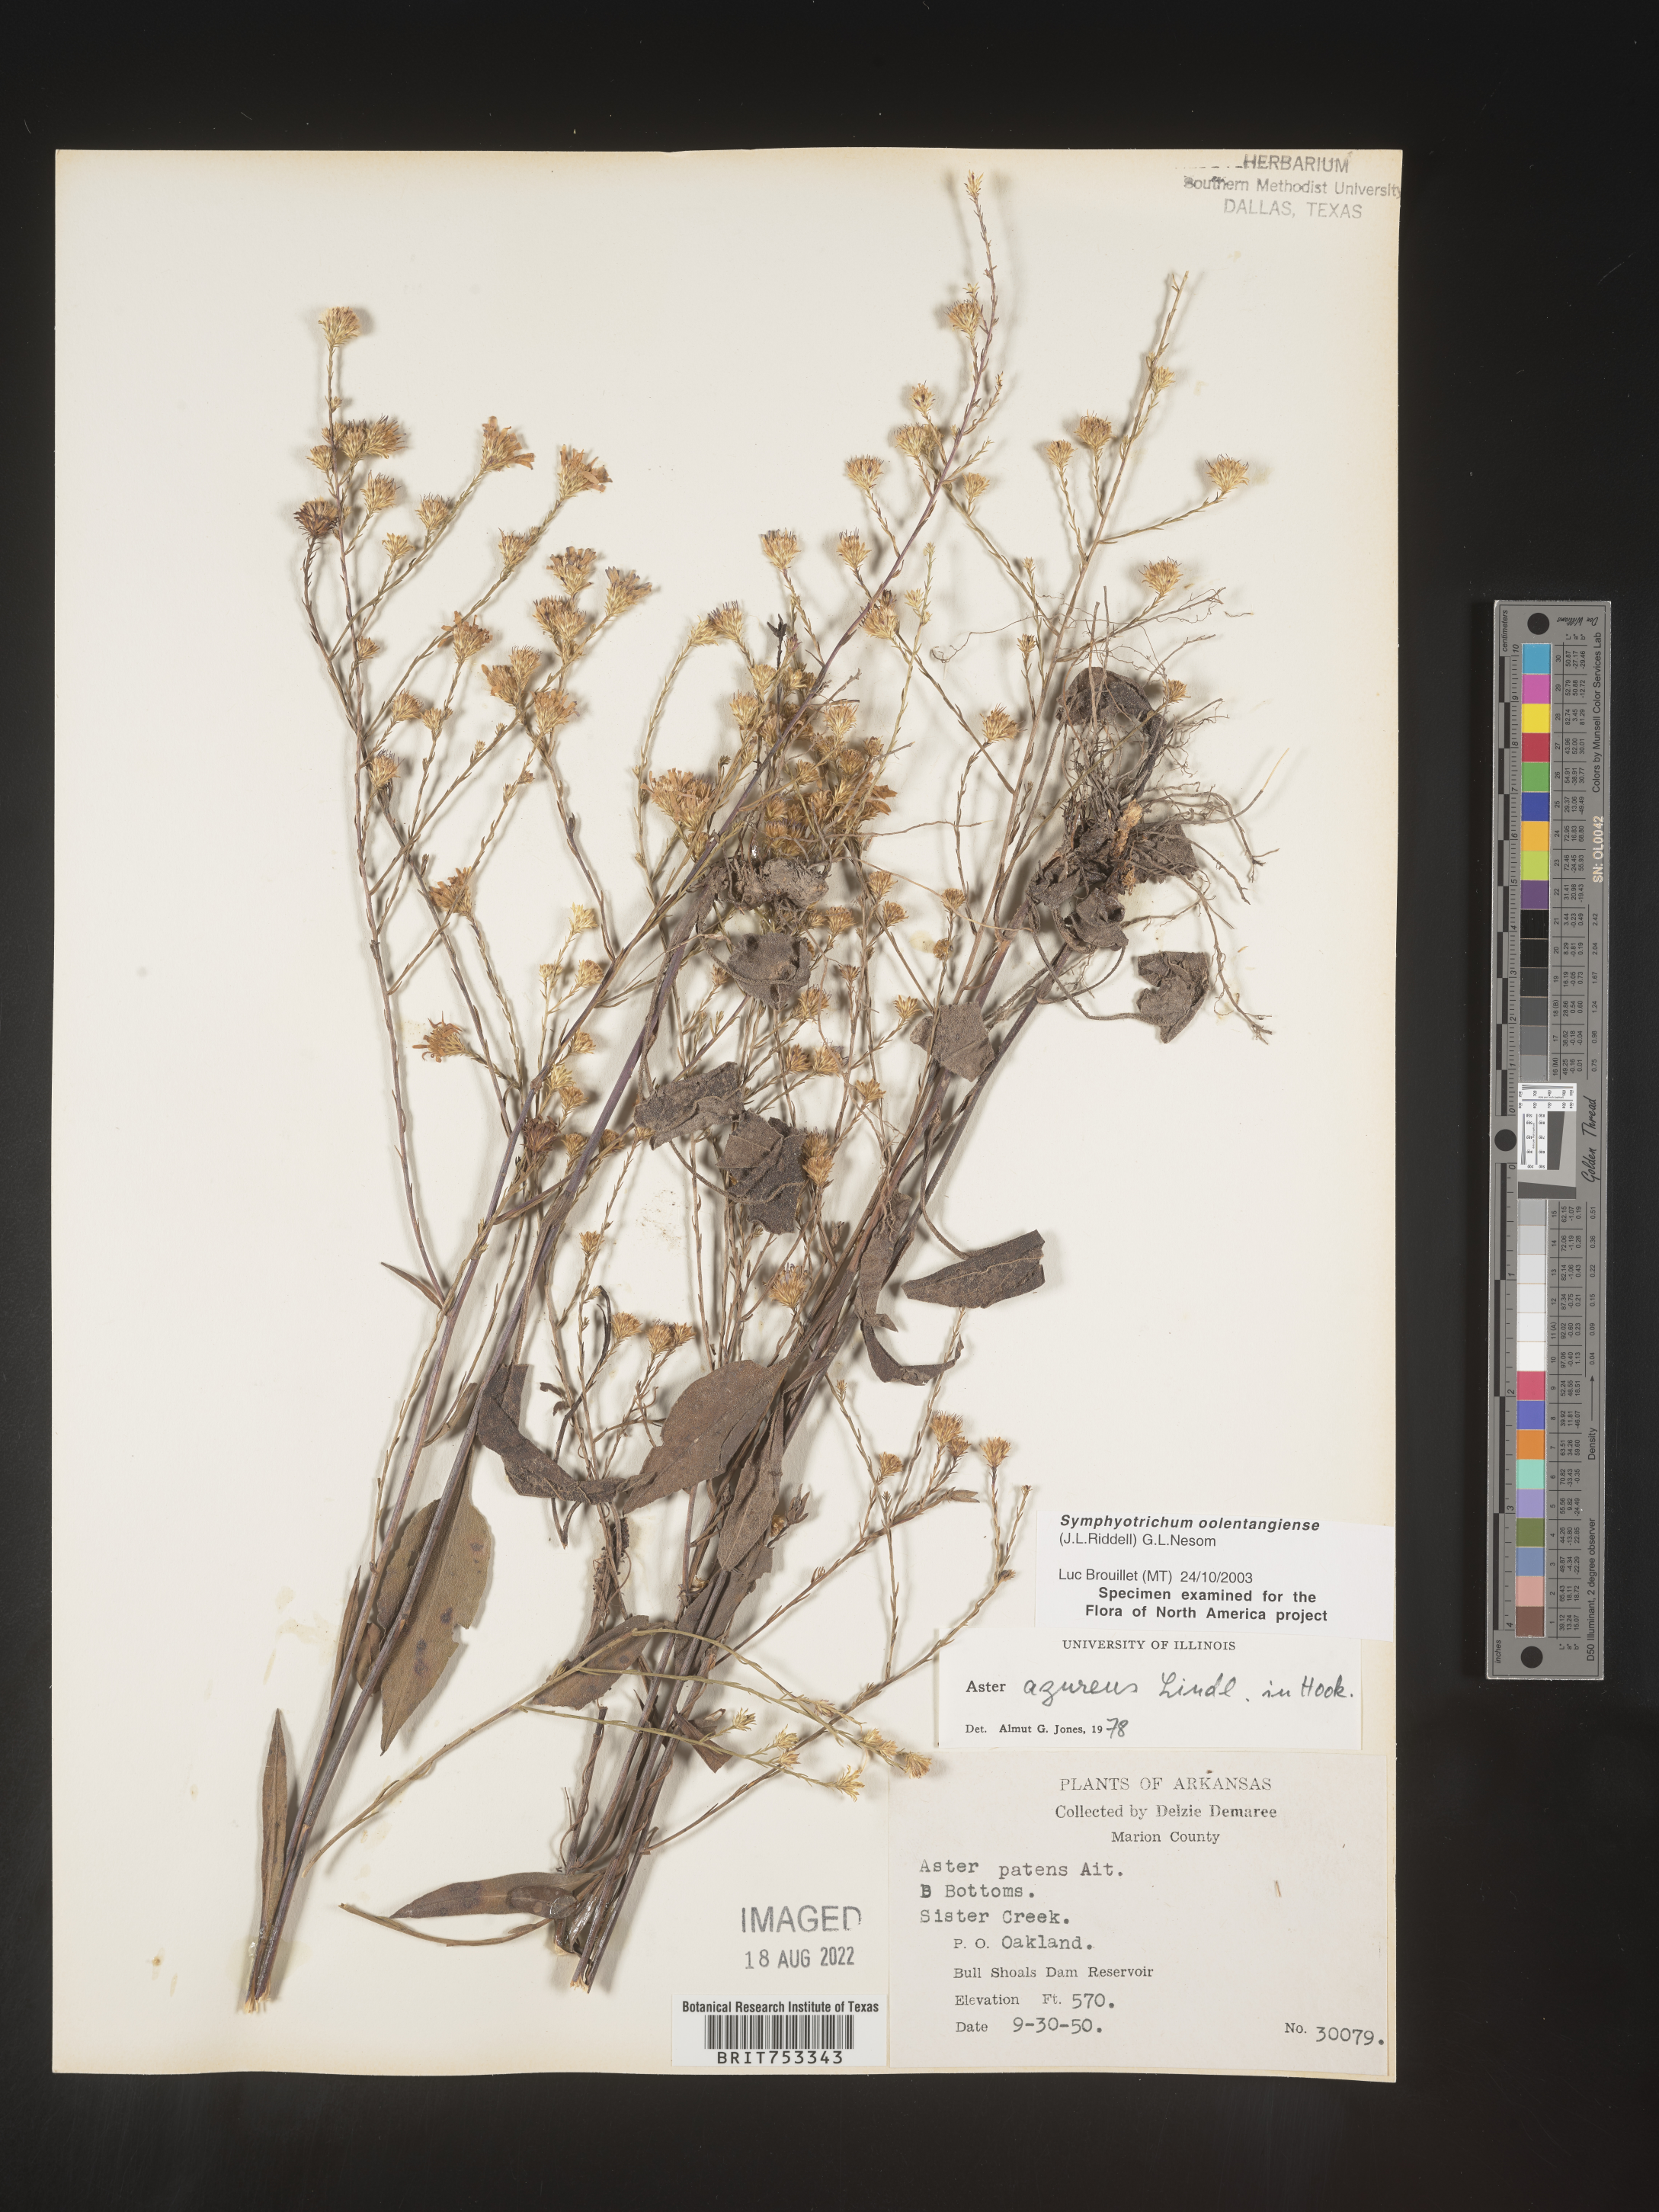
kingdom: Plantae
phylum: Tracheophyta
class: Magnoliopsida
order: Asterales
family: Asteraceae
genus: Symphyotrichum
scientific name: Symphyotrichum oolentangiense
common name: Azure aster
